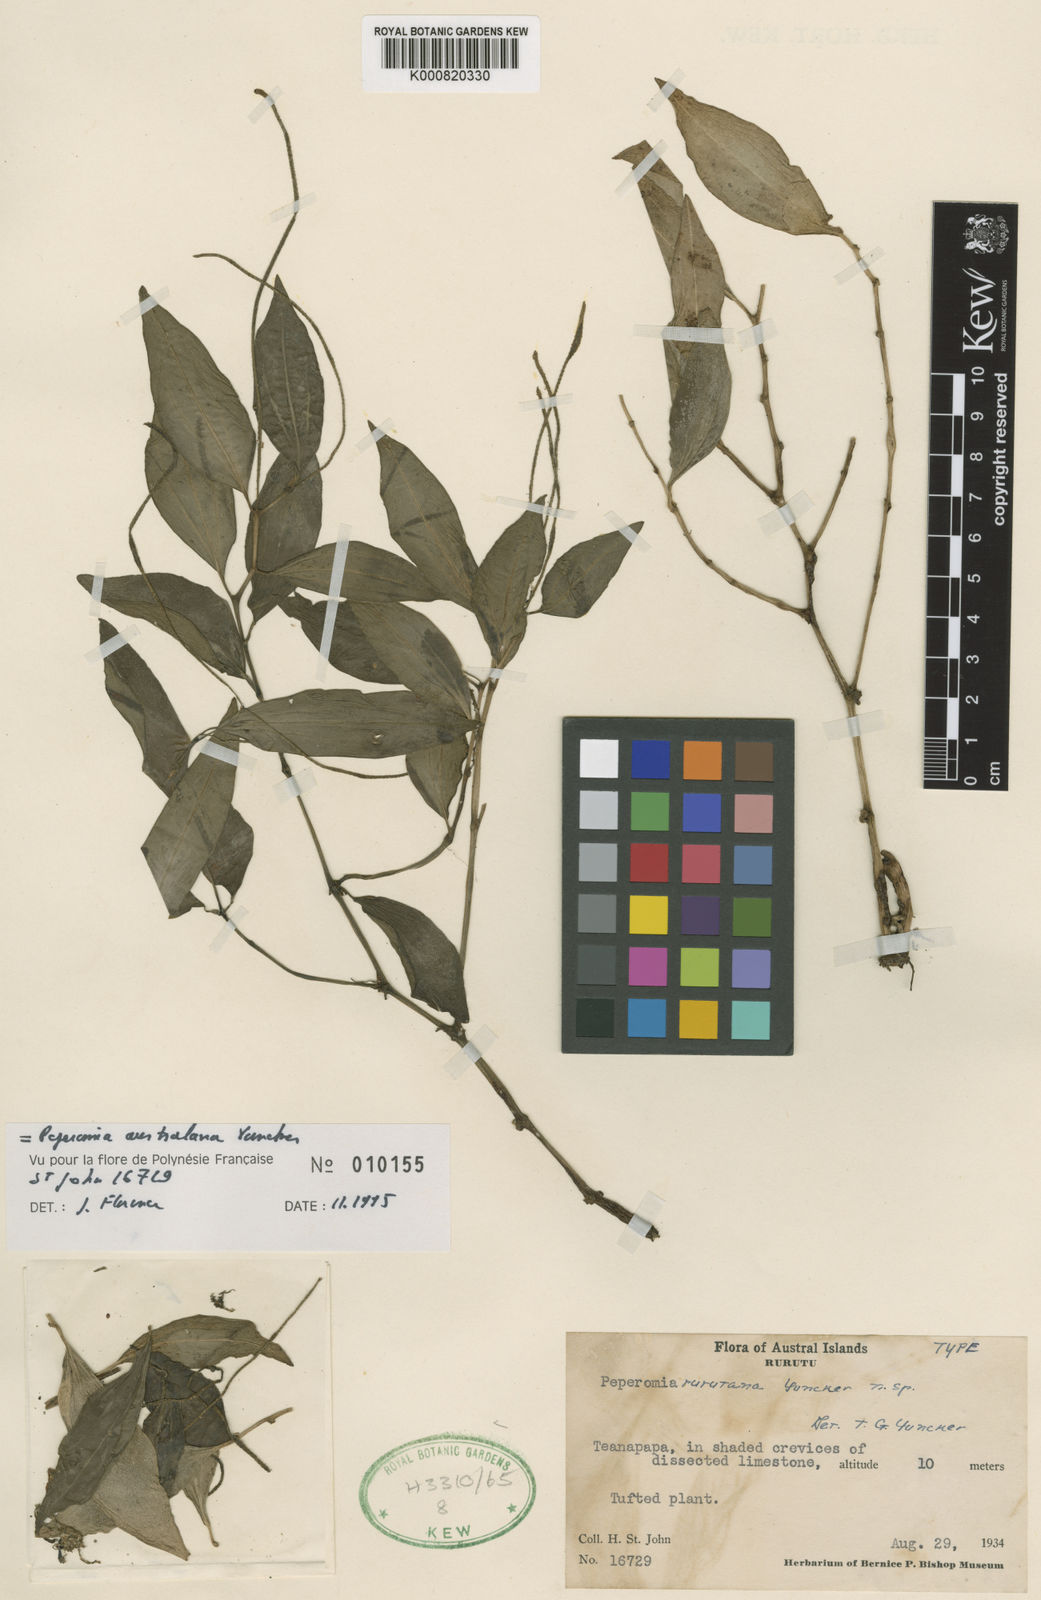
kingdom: Plantae
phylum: Tracheophyta
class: Magnoliopsida
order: Piperales
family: Piperaceae
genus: Peperomia
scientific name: Peperomia australana
